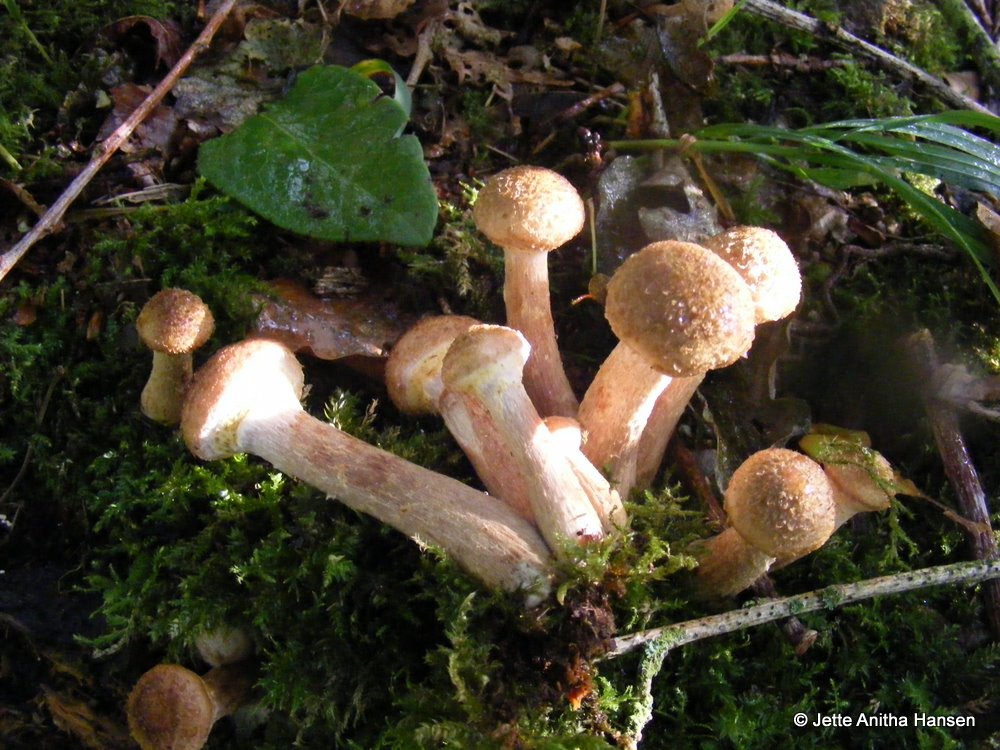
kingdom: Fungi
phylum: Basidiomycota
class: Agaricomycetes
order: Agaricales
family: Physalacriaceae
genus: Armillaria
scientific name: Armillaria lutea
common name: køllestokket honningsvamp
